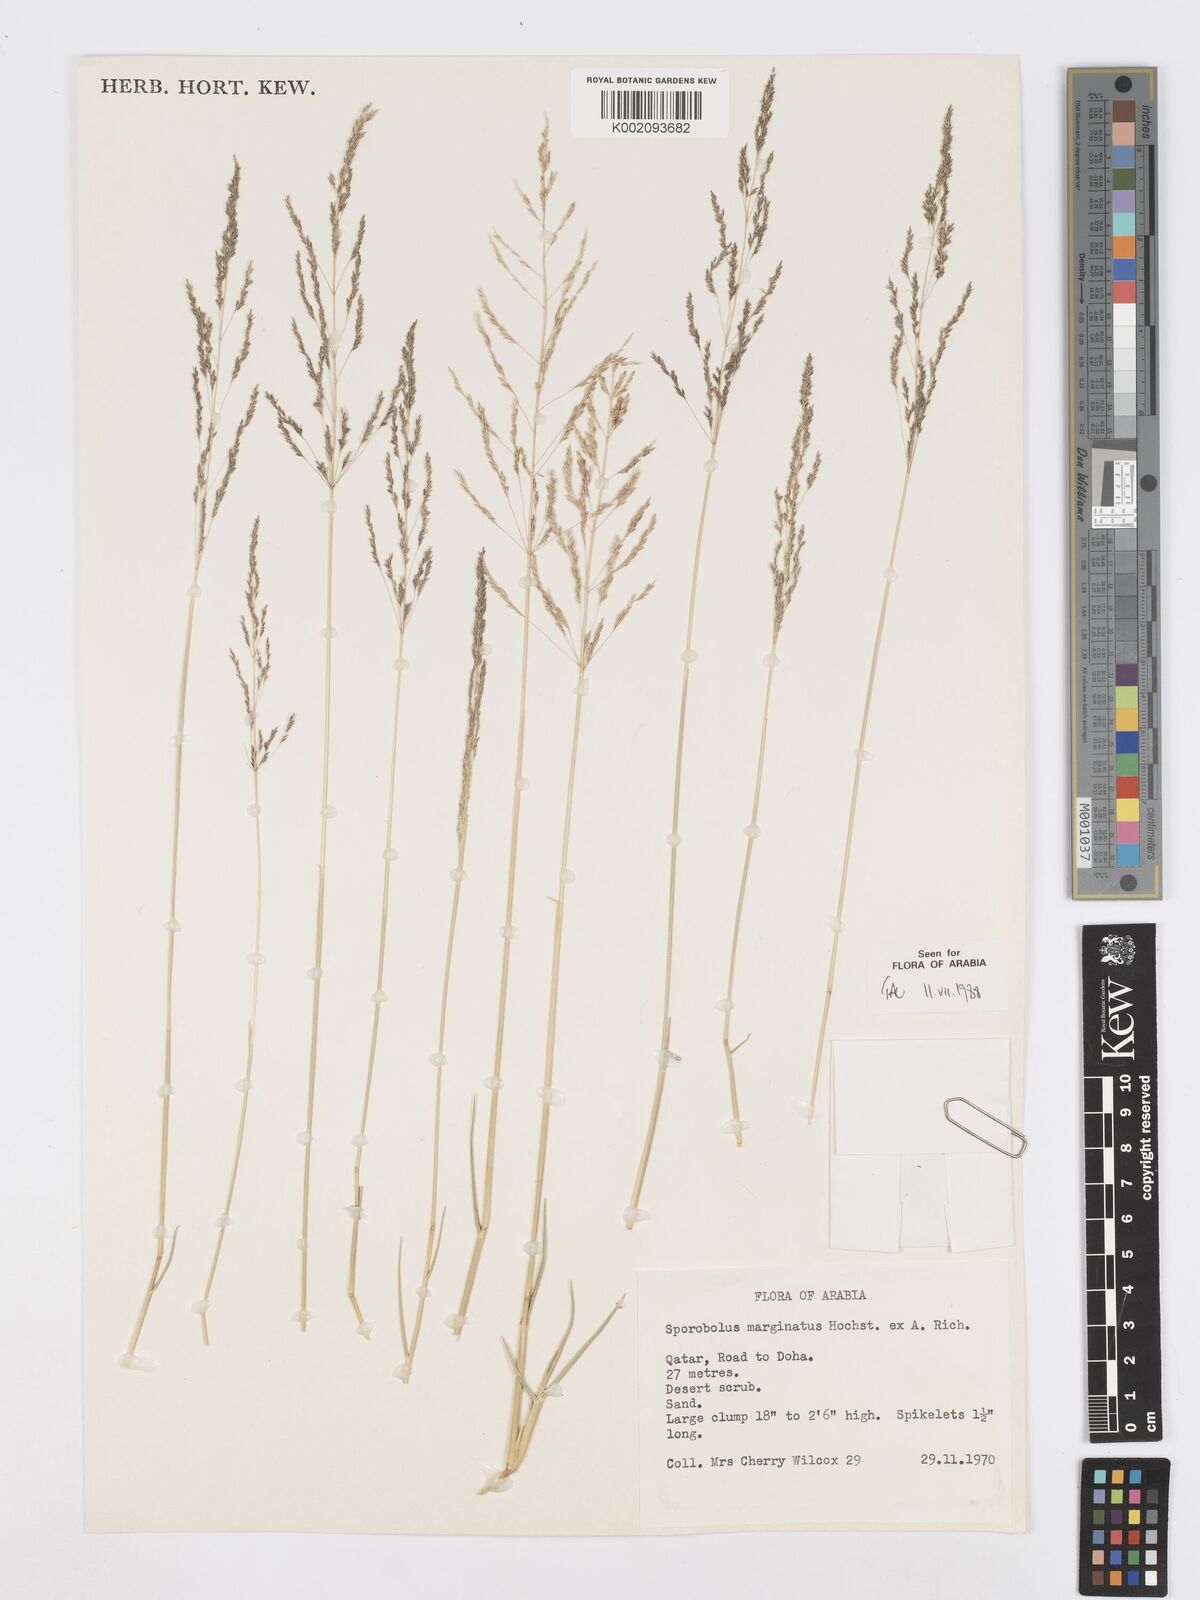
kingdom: Plantae
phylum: Tracheophyta
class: Liliopsida
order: Poales
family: Poaceae
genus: Sporobolus
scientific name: Sporobolus ioclados
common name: Pan dropseed
